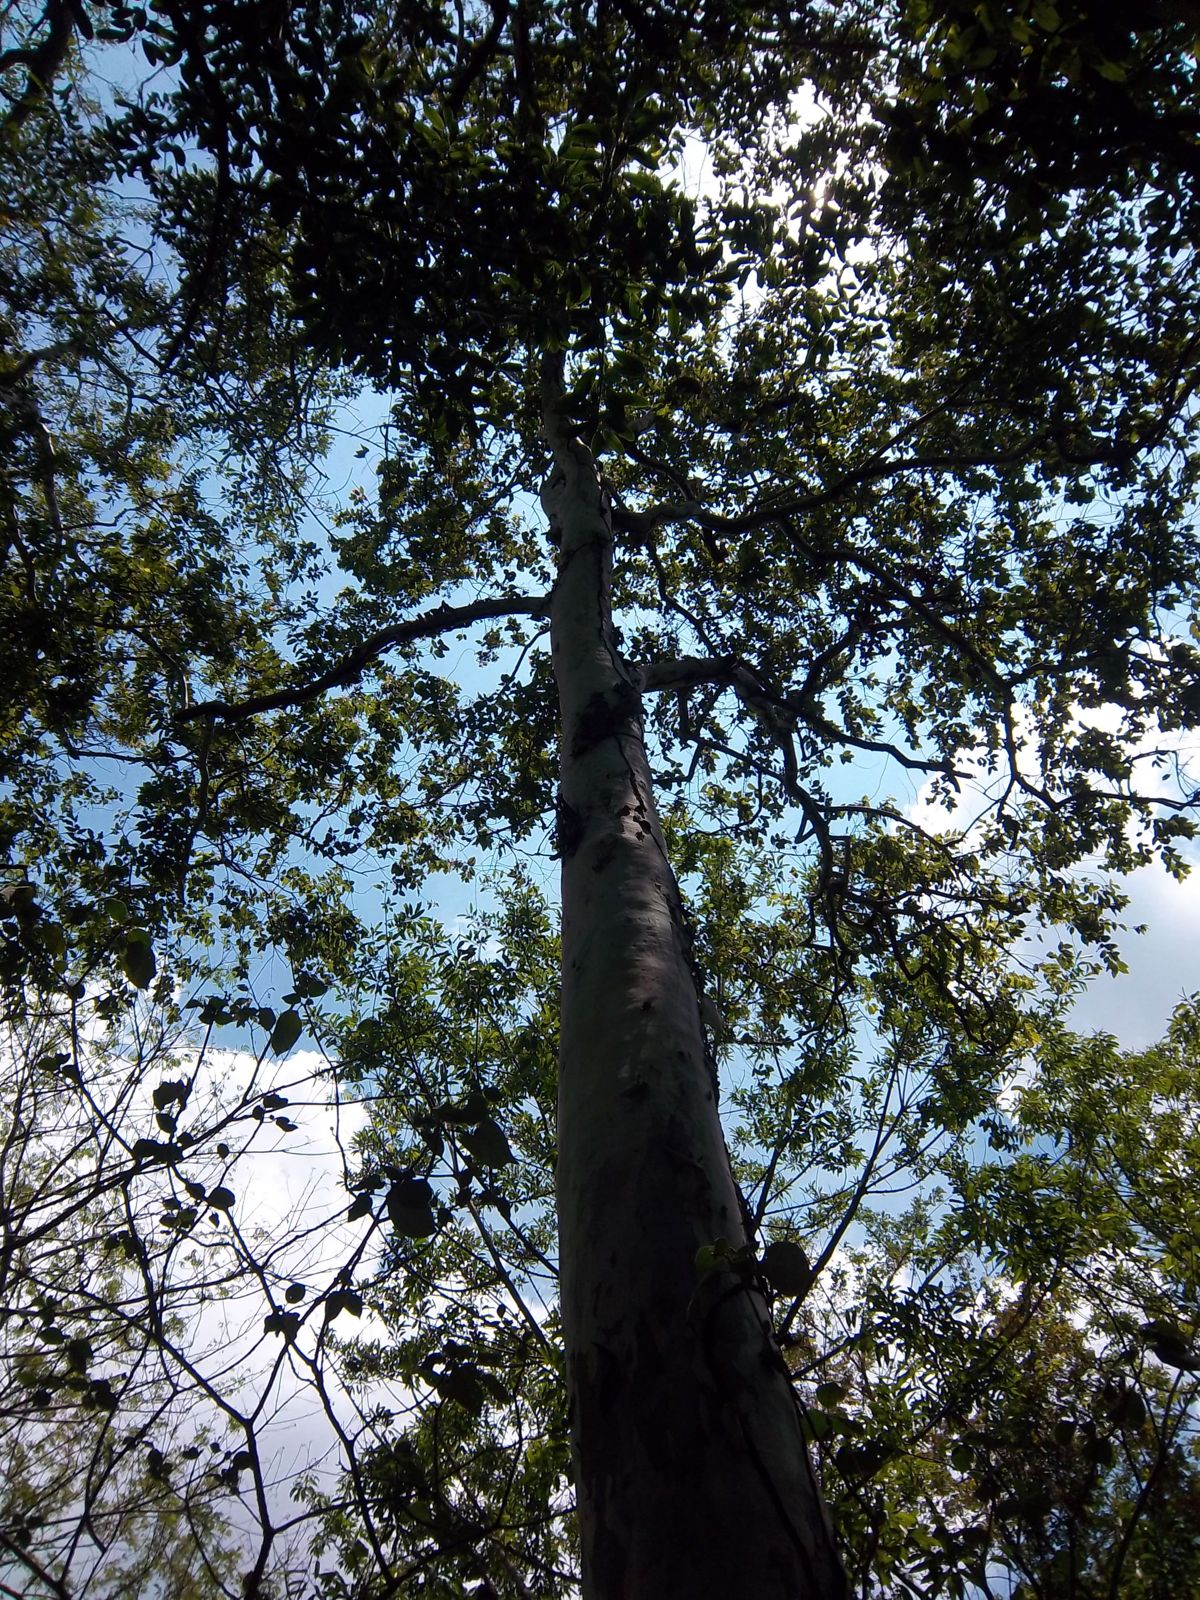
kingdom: Plantae
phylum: Tracheophyta
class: Magnoliopsida
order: Myrtales
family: Myrtaceae
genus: Corymbia
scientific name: Corymbia torelliana
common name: Cadaghi
